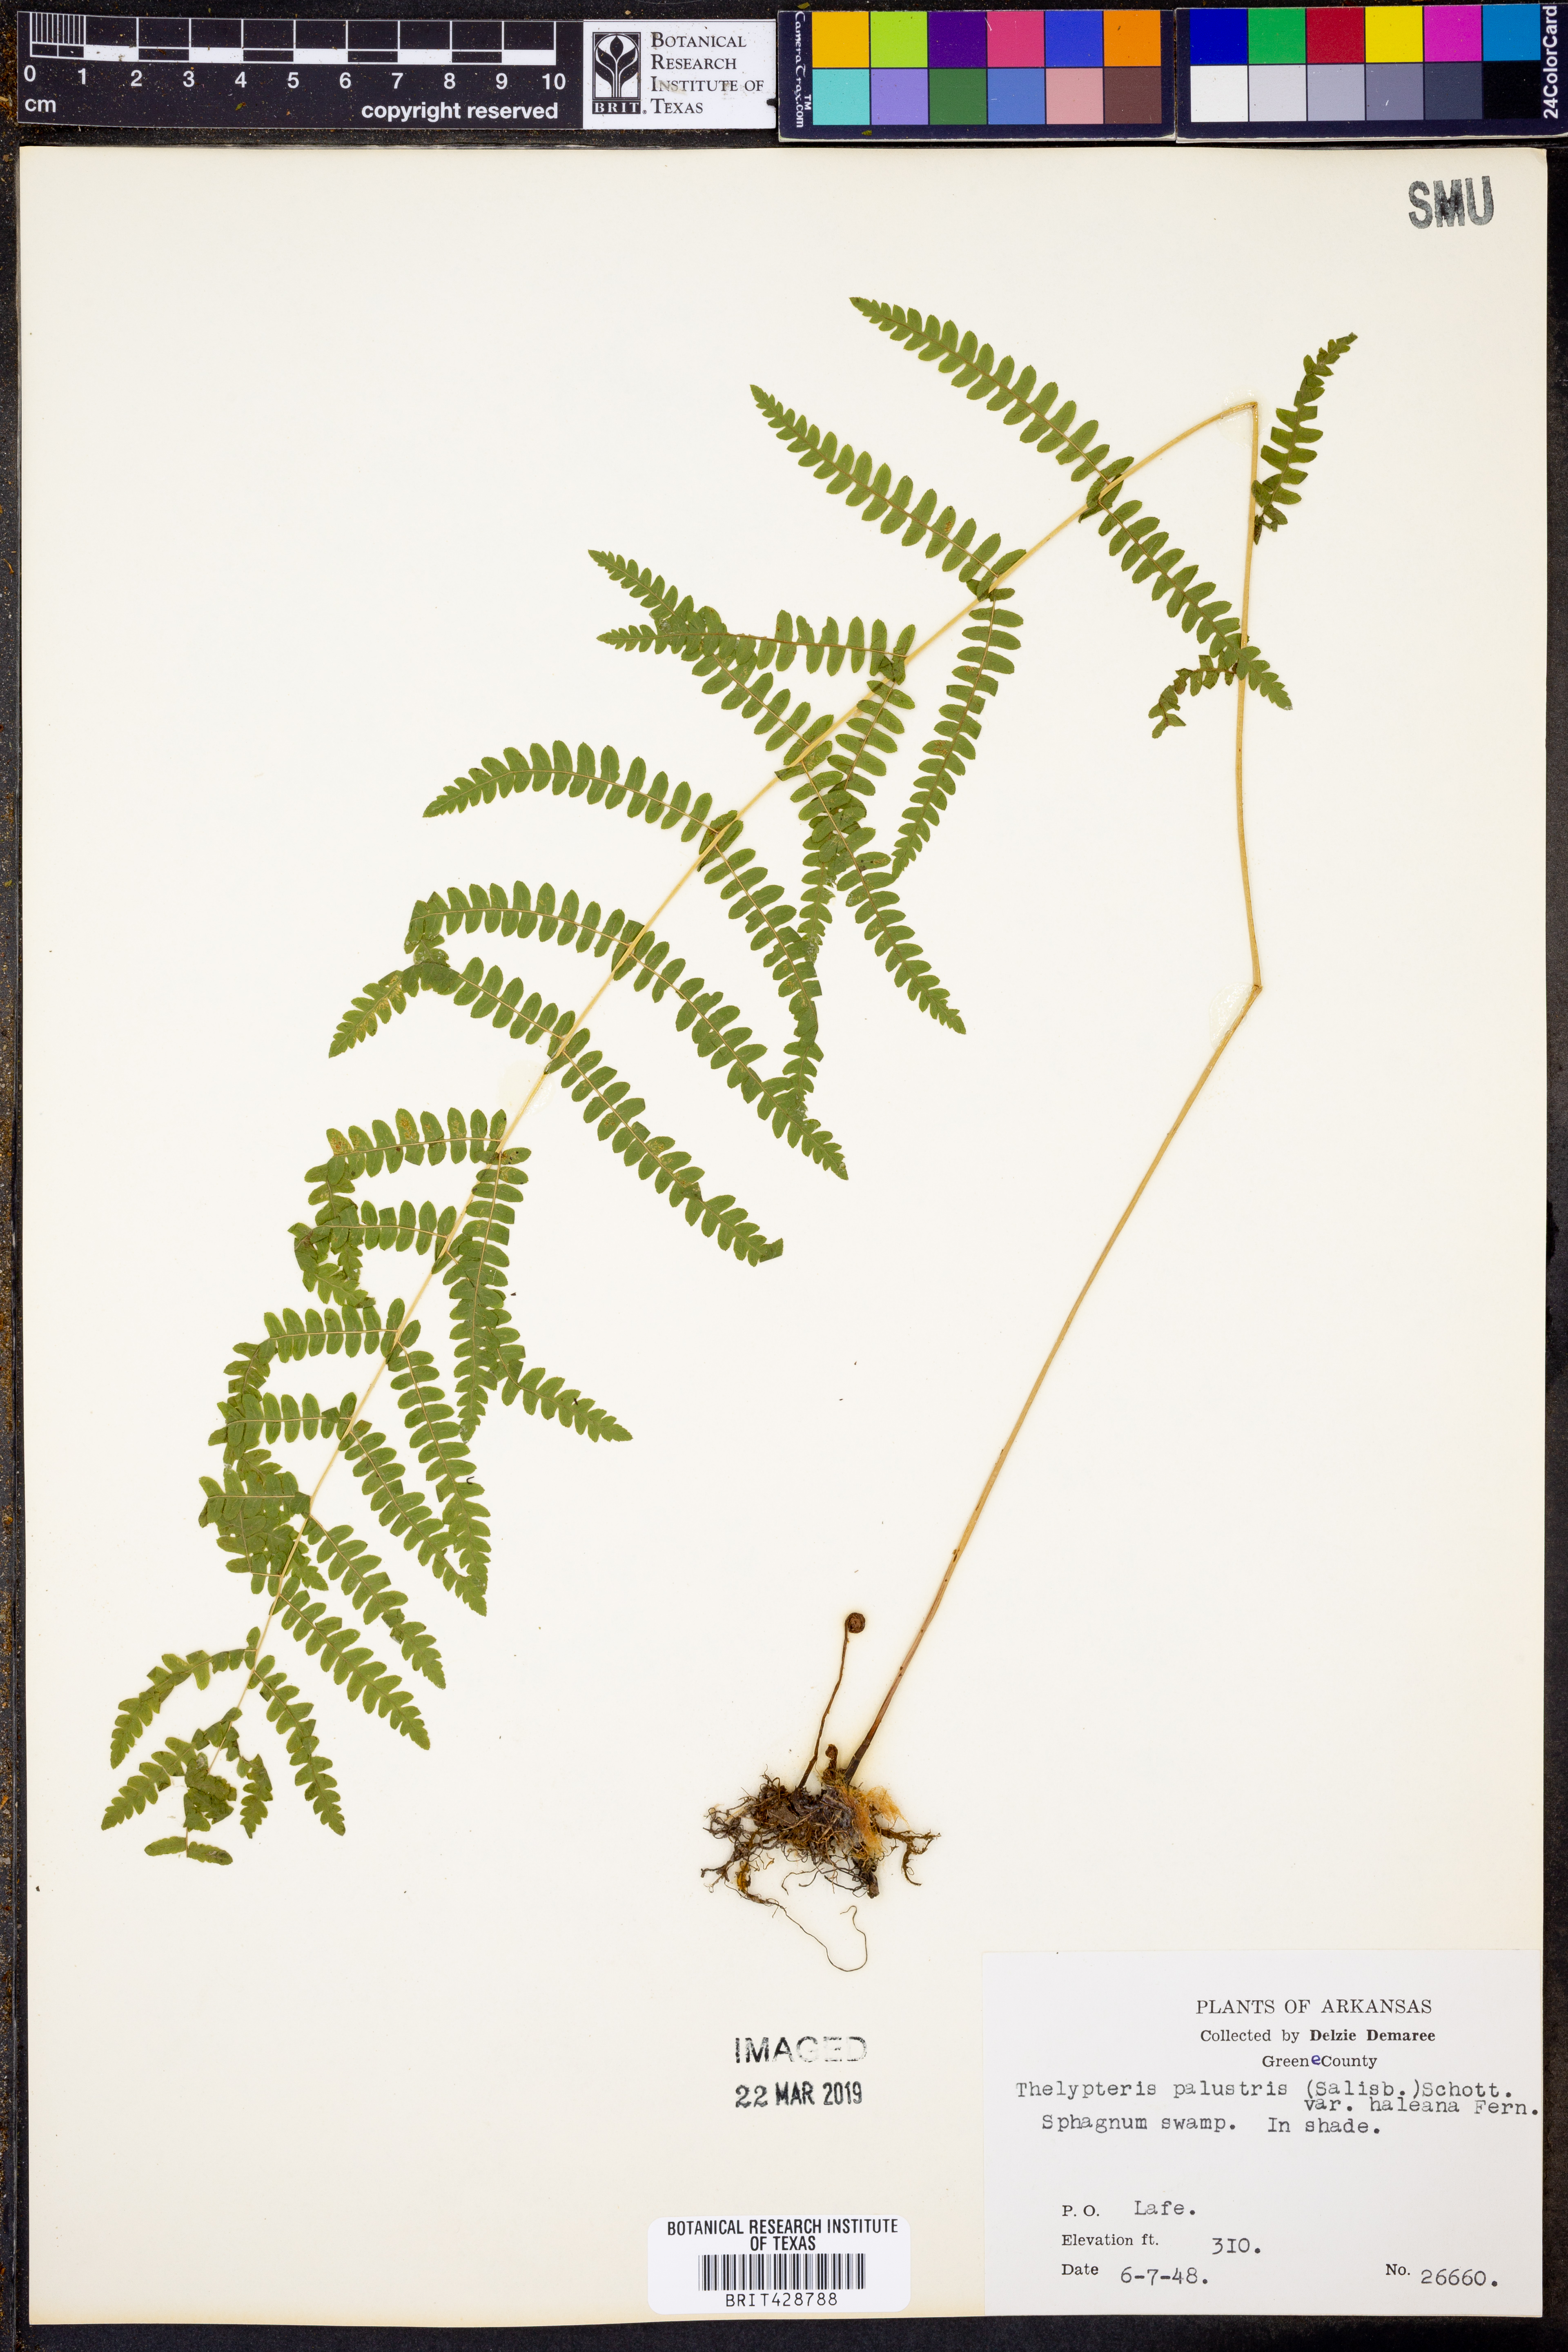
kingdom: Plantae
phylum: Tracheophyta
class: Polypodiopsida
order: Polypodiales
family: Thelypteridaceae
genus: Thelypteris
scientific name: Thelypteris palustris
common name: Marsh fern
